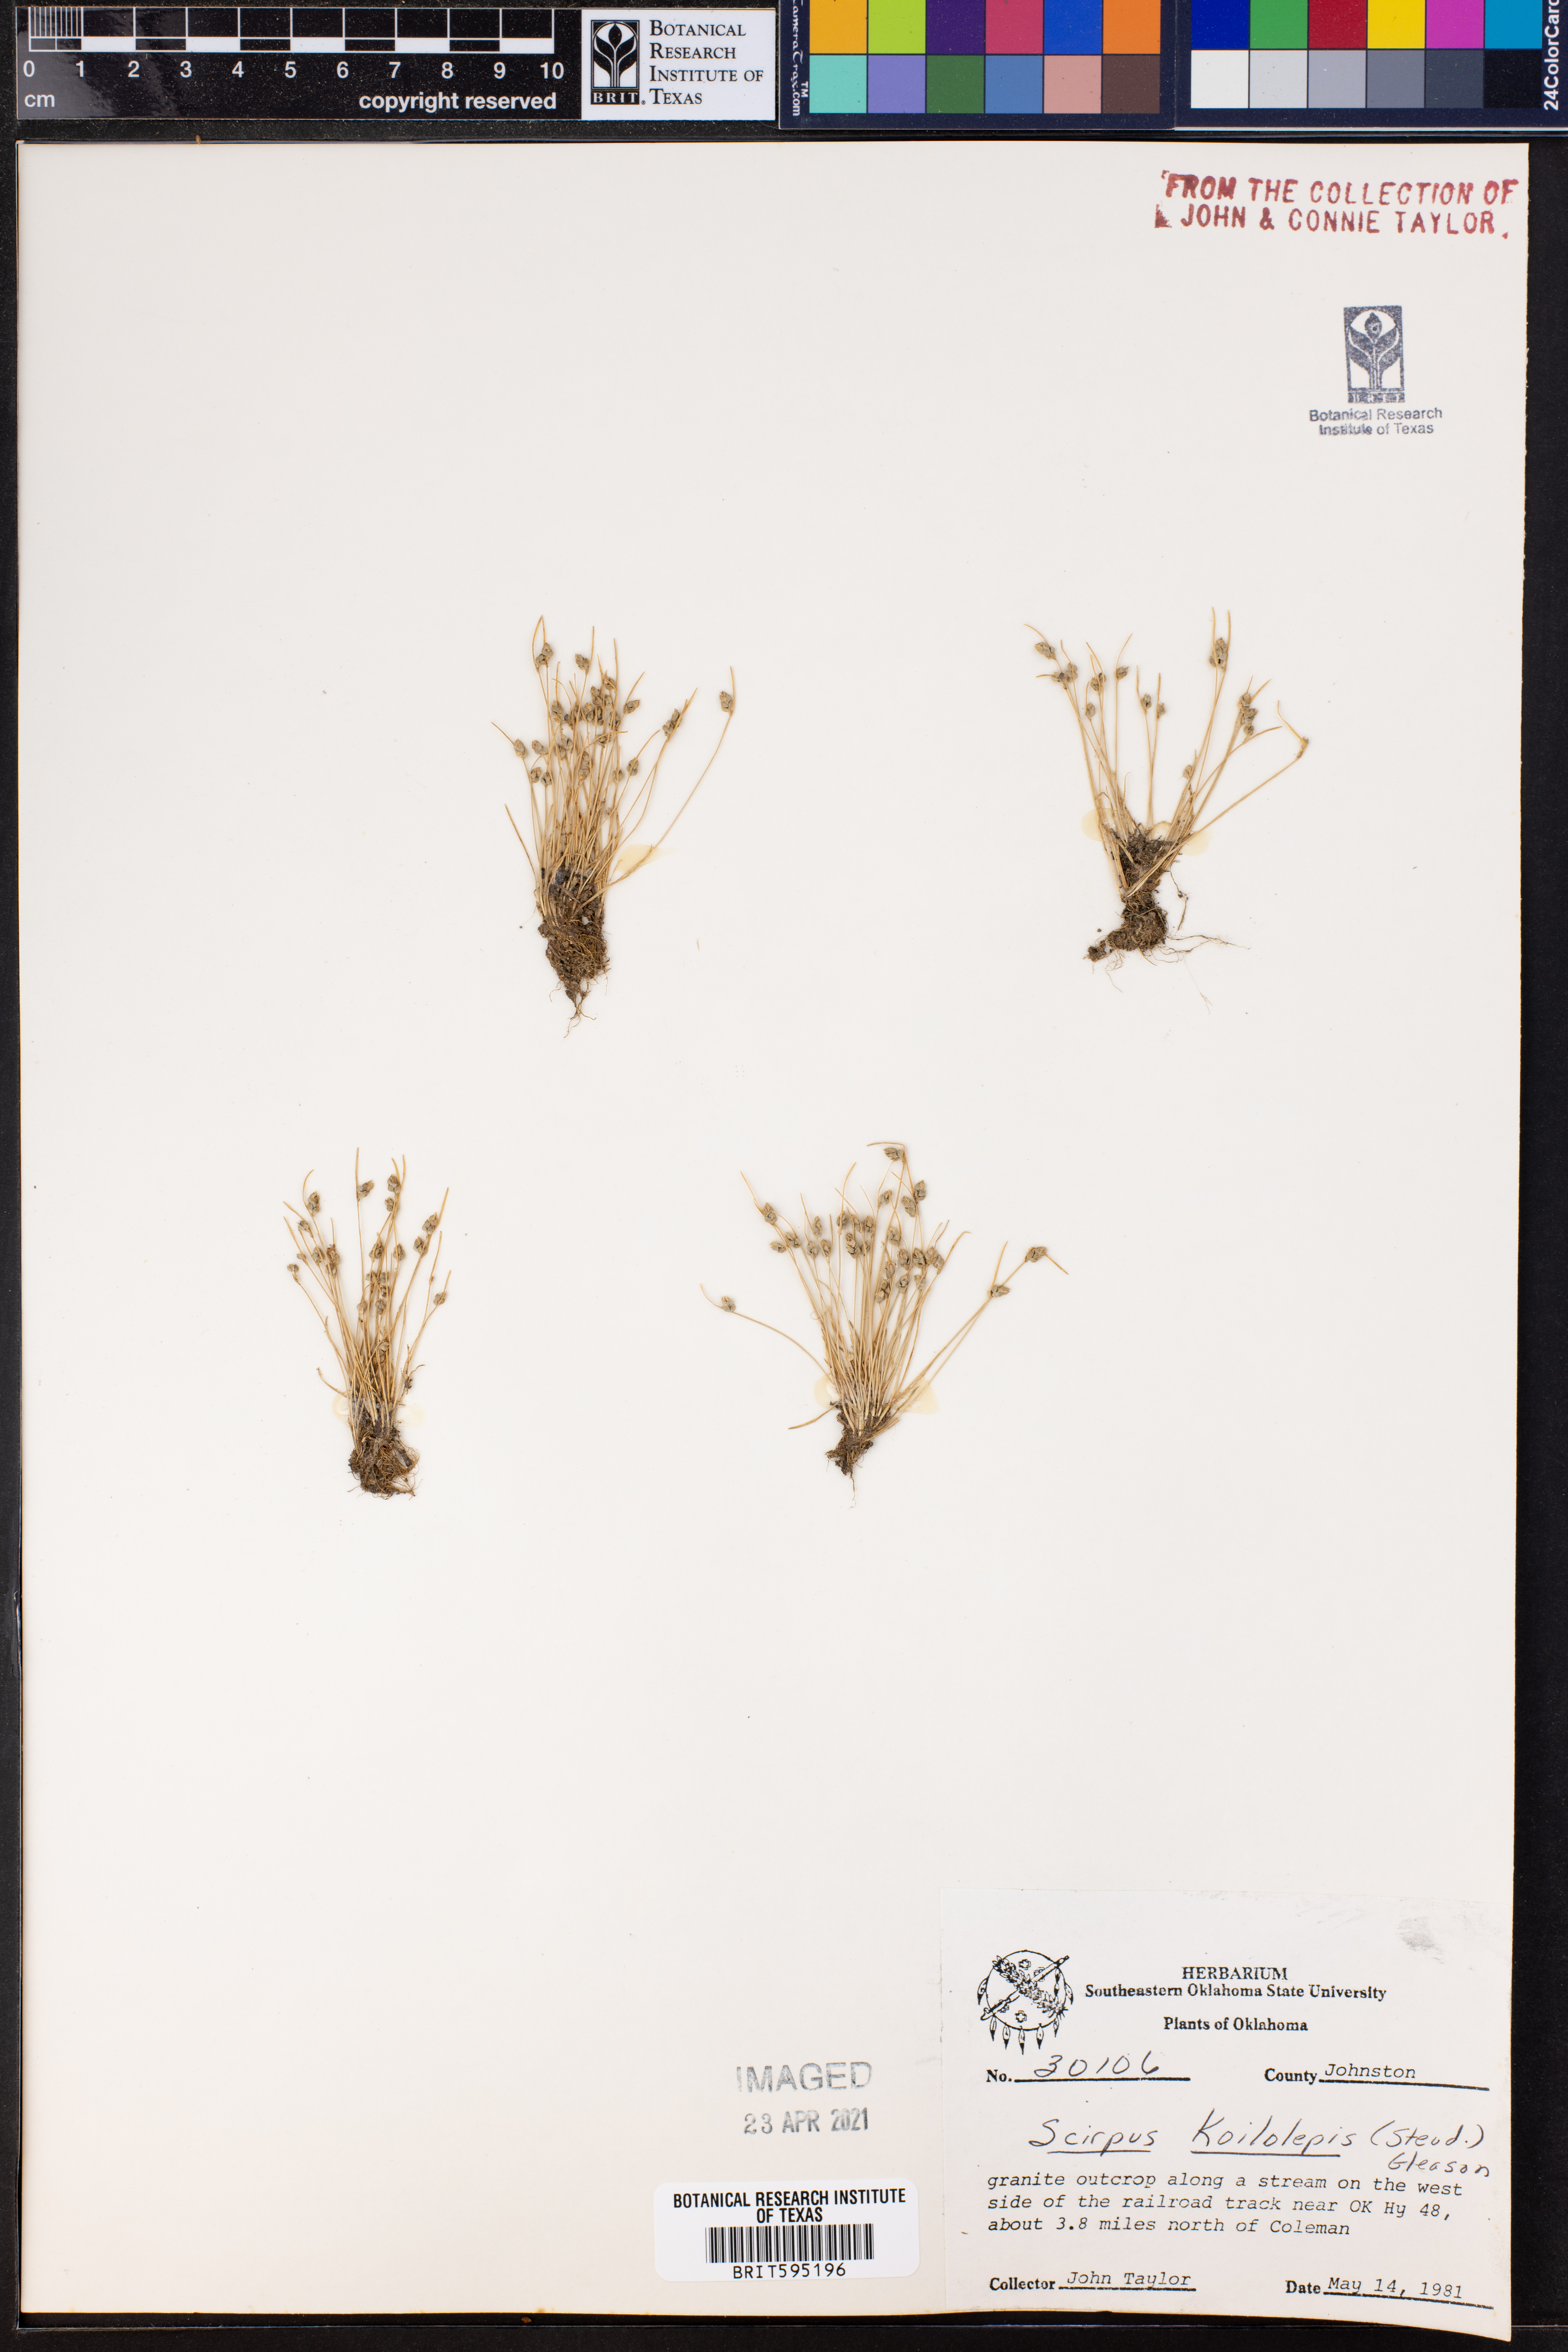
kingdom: Plantae
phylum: Tracheophyta
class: Liliopsida
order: Poales
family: Cyperaceae
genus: Isolepis
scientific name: Isolepis carinata
